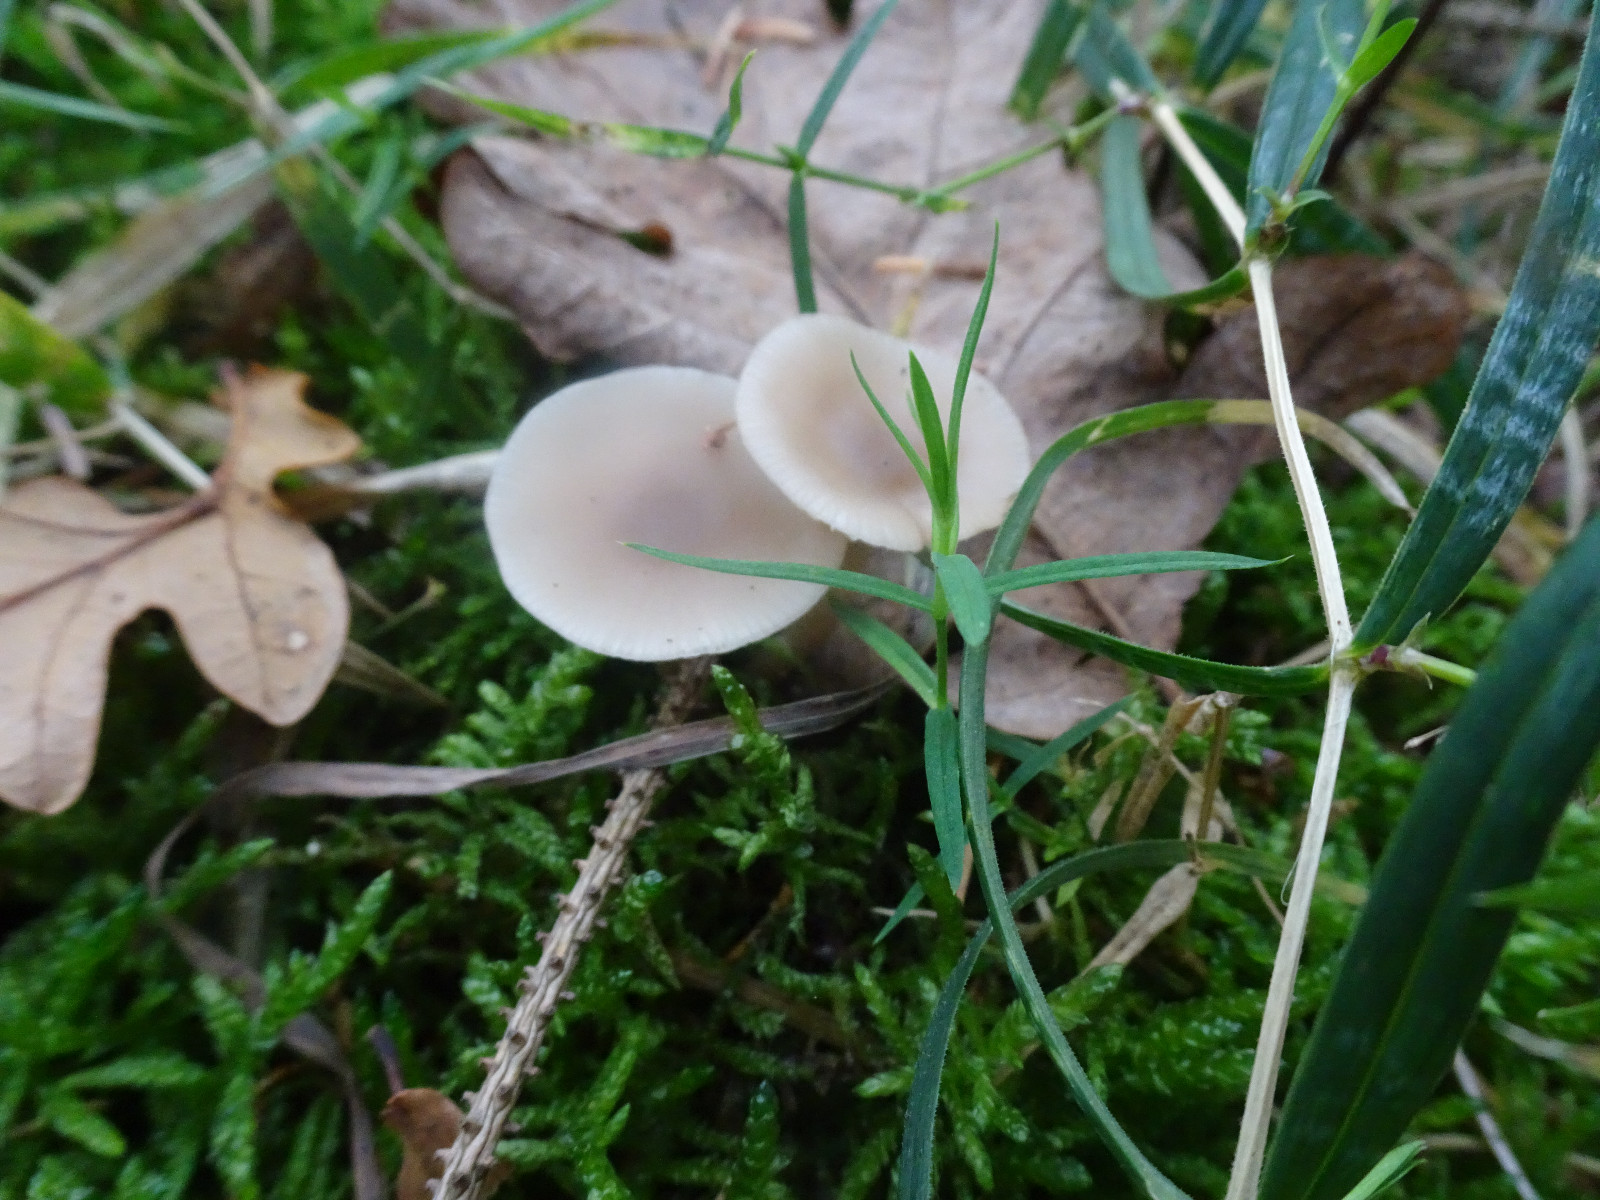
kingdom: Fungi
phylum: Basidiomycota
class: Agaricomycetes
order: Agaricales
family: Tricholomataceae
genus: Clitocybe
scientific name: Clitocybe fragrans
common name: vellugtende tragthat
